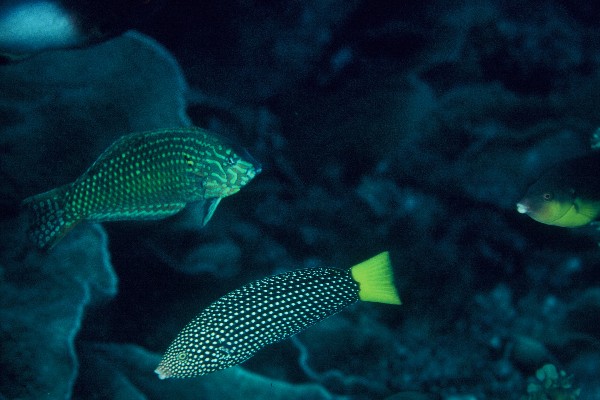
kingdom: Animalia
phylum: Chordata
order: Perciformes
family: Labridae
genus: Macropharyngodon
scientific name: Macropharyngodon meleagris
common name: Leopard wrasse
